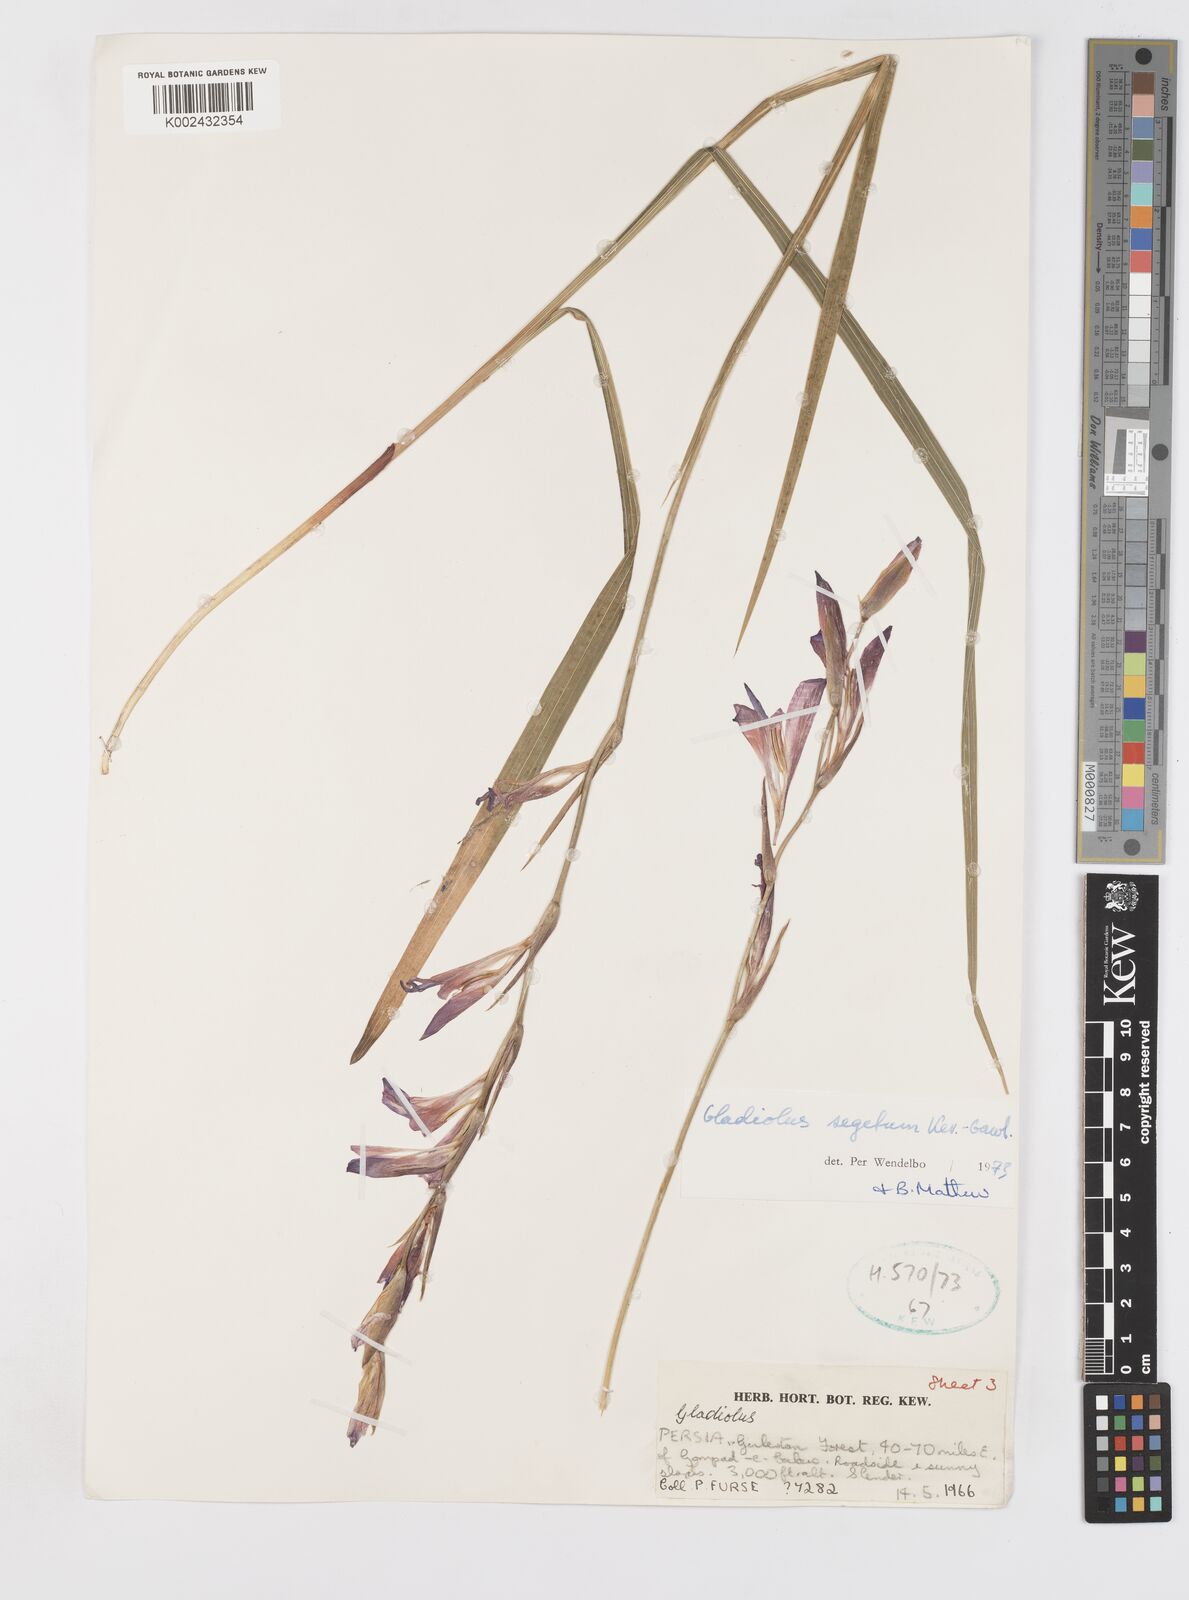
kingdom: Plantae
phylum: Tracheophyta
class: Liliopsida
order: Asparagales
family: Iridaceae
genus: Gladiolus
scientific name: Gladiolus italicus
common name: Field gladiolus
